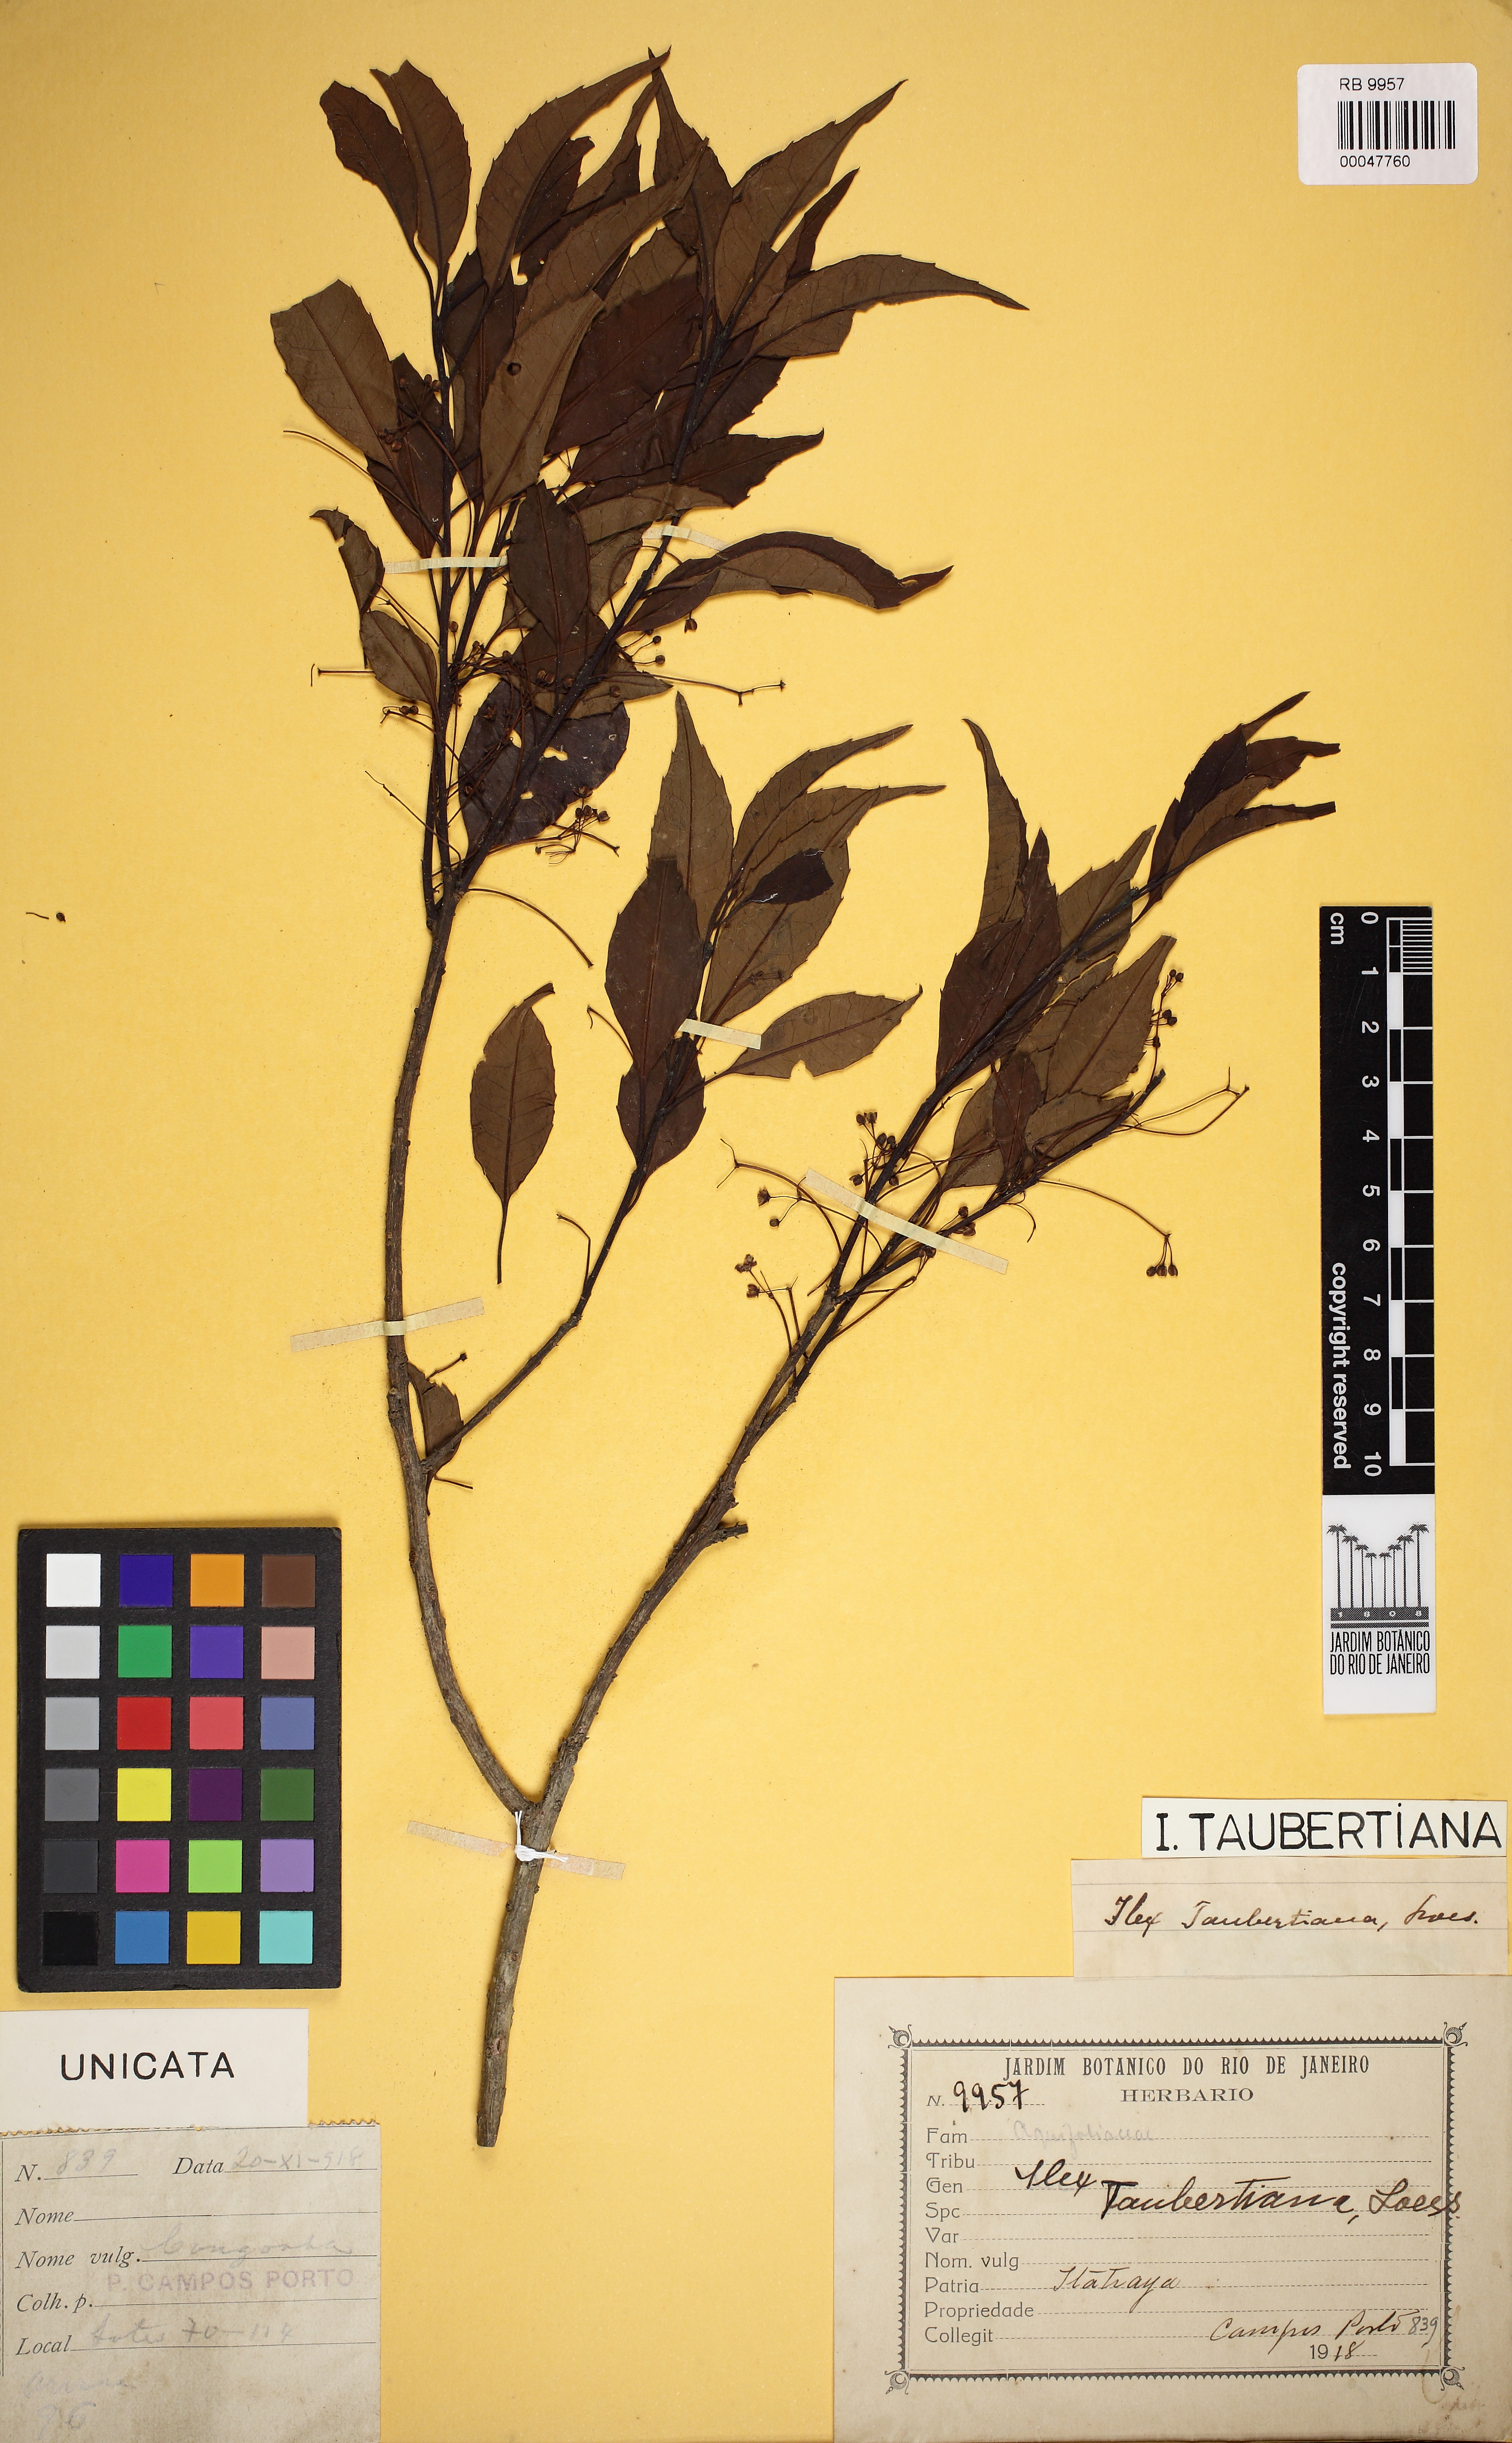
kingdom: Plantae
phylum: Tracheophyta
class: Magnoliopsida
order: Aquifoliales
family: Aquifoliaceae
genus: Ilex
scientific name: Ilex taubertiana
